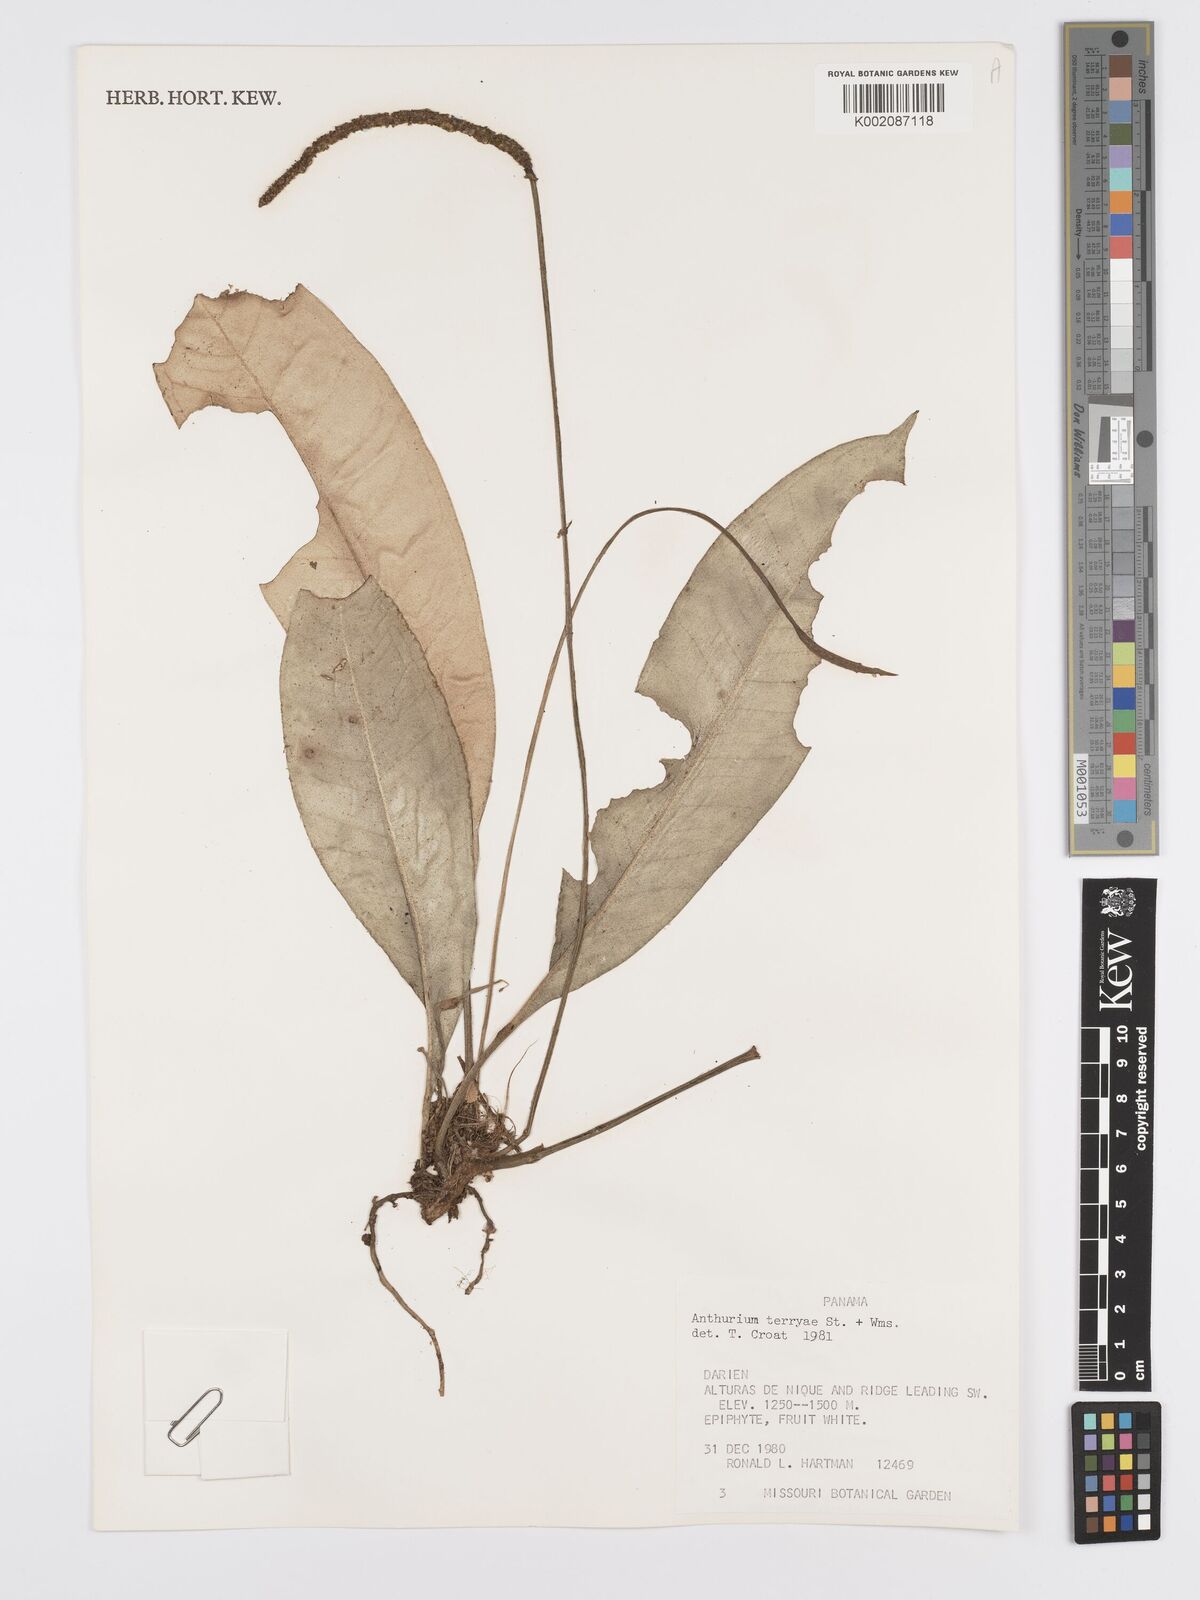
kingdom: Plantae
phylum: Tracheophyta
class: Liliopsida
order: Alismatales
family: Araceae
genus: Anthurium
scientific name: Anthurium terryae
